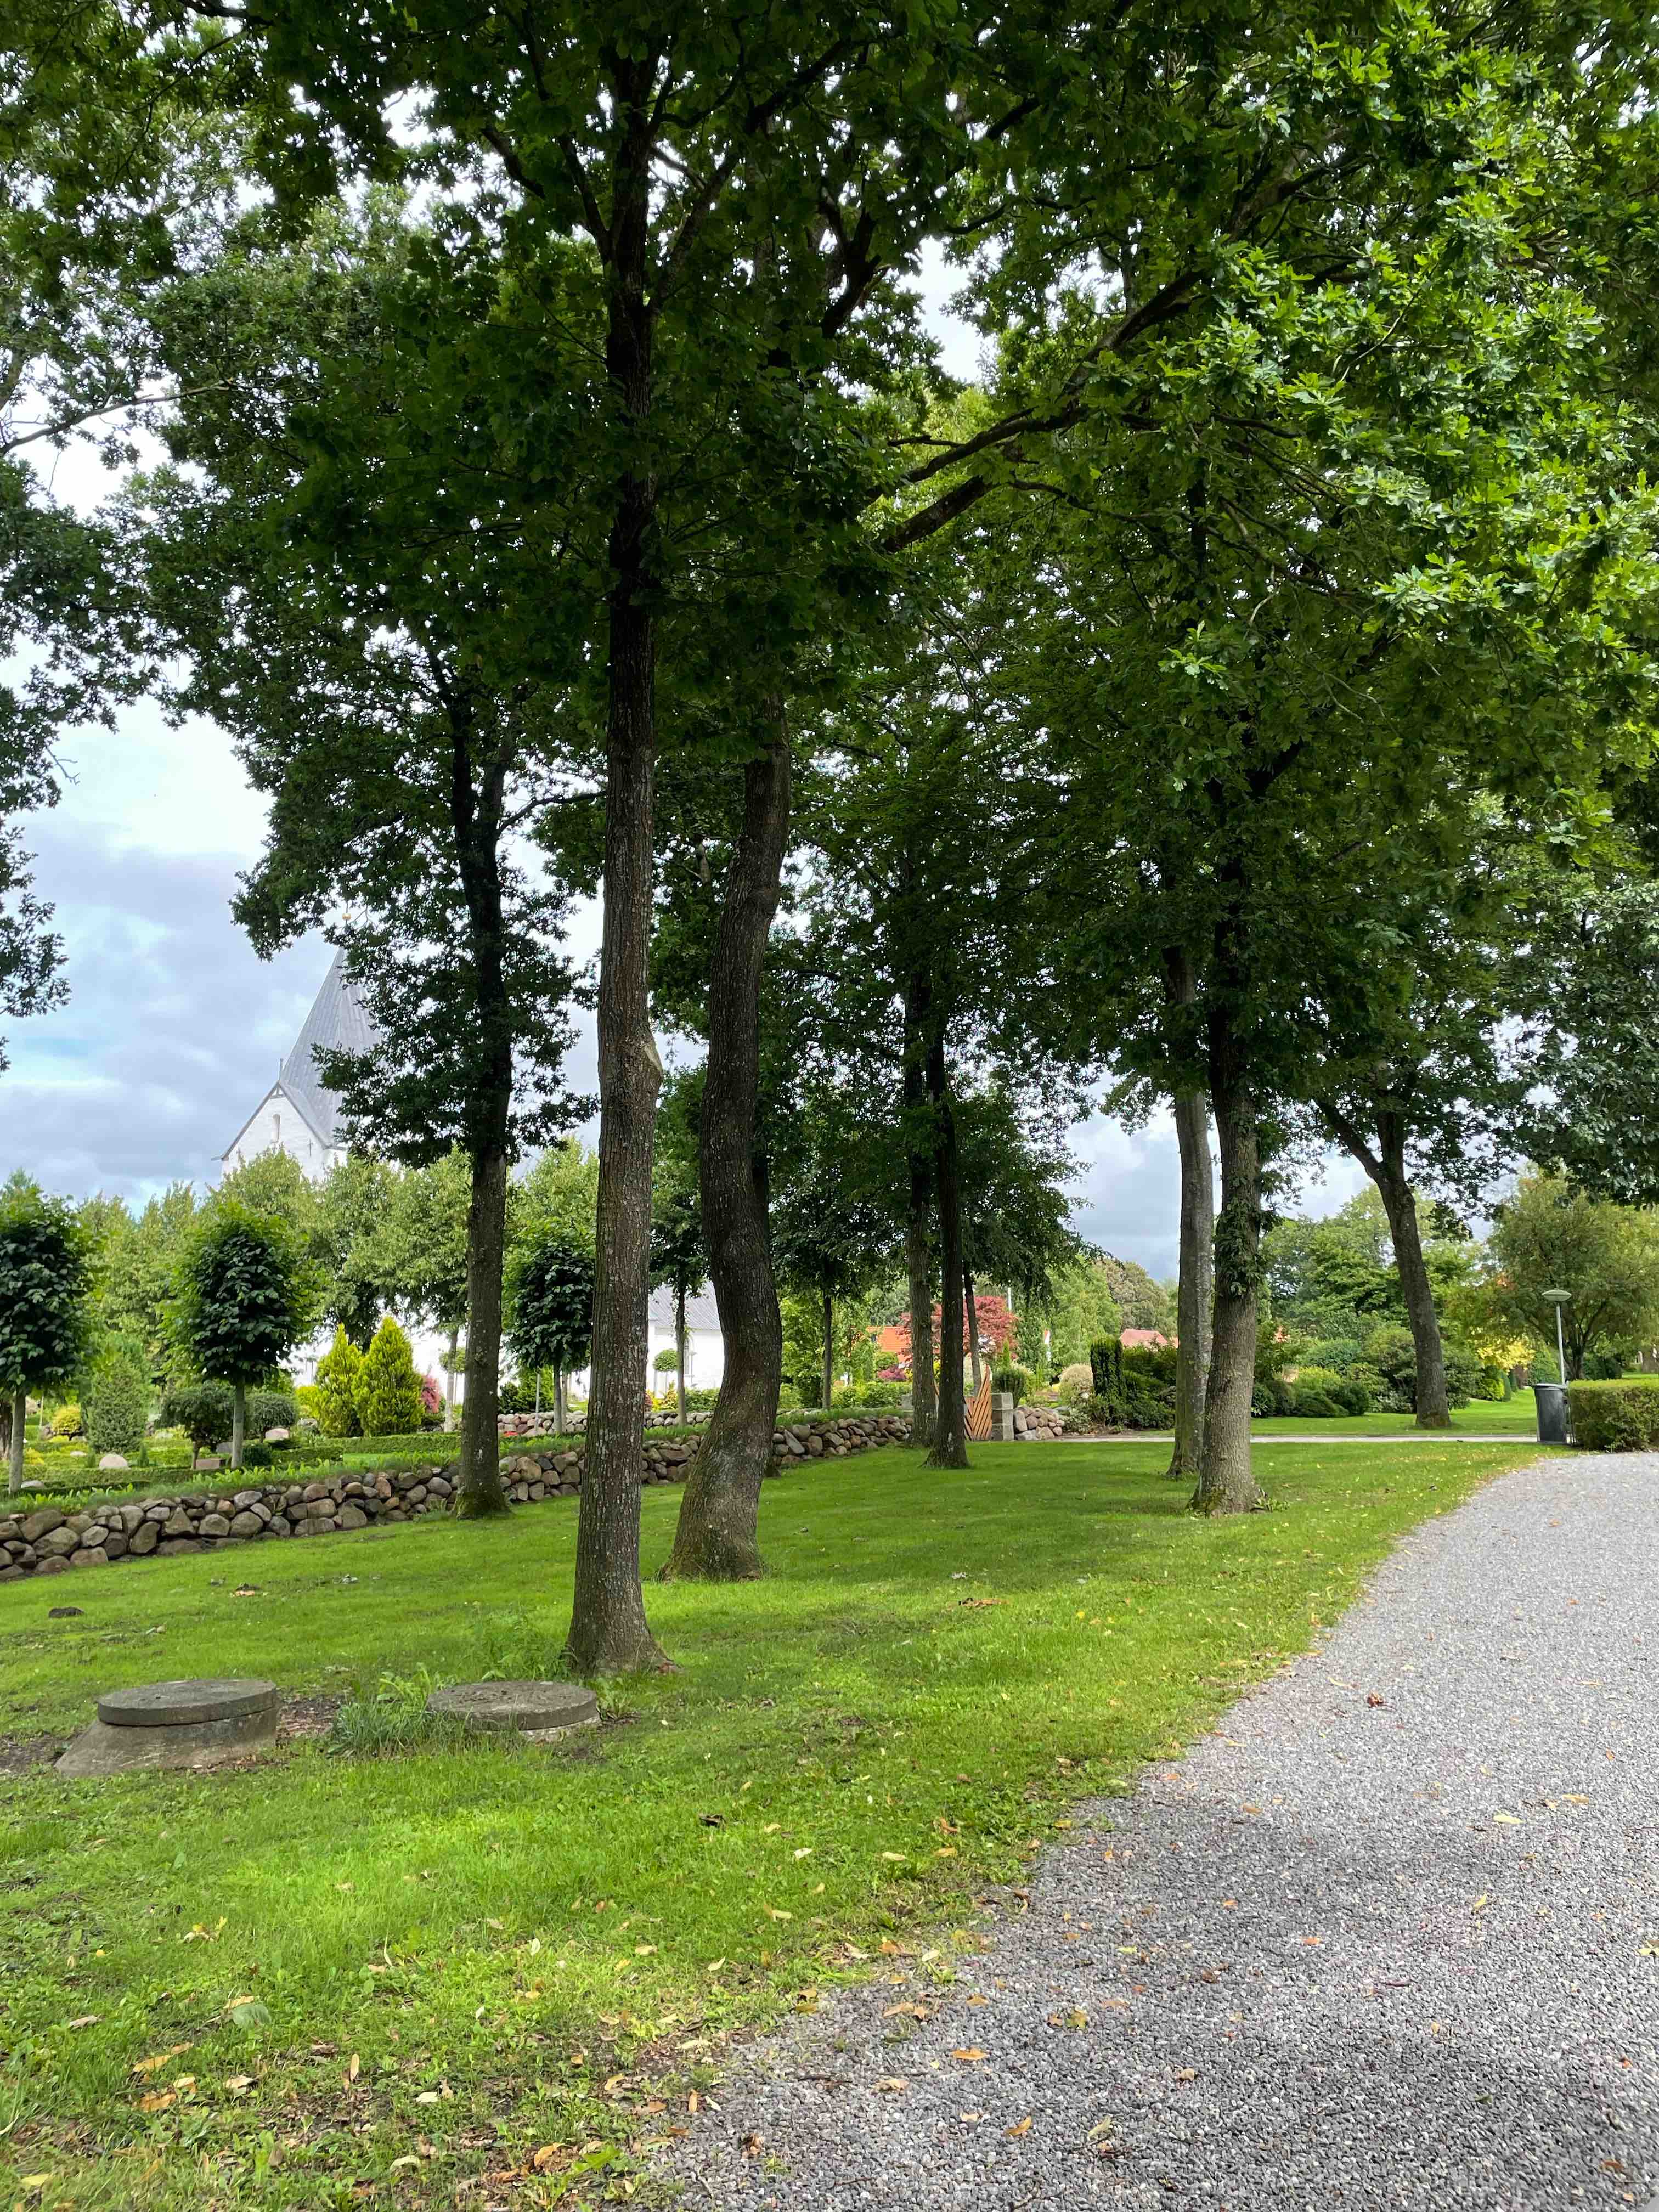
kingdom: Fungi
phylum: Basidiomycota
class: Agaricomycetes
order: Boletales
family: Boletaceae
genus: Hortiboletus
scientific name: Hortiboletus engelii
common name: fersken-rørhat
